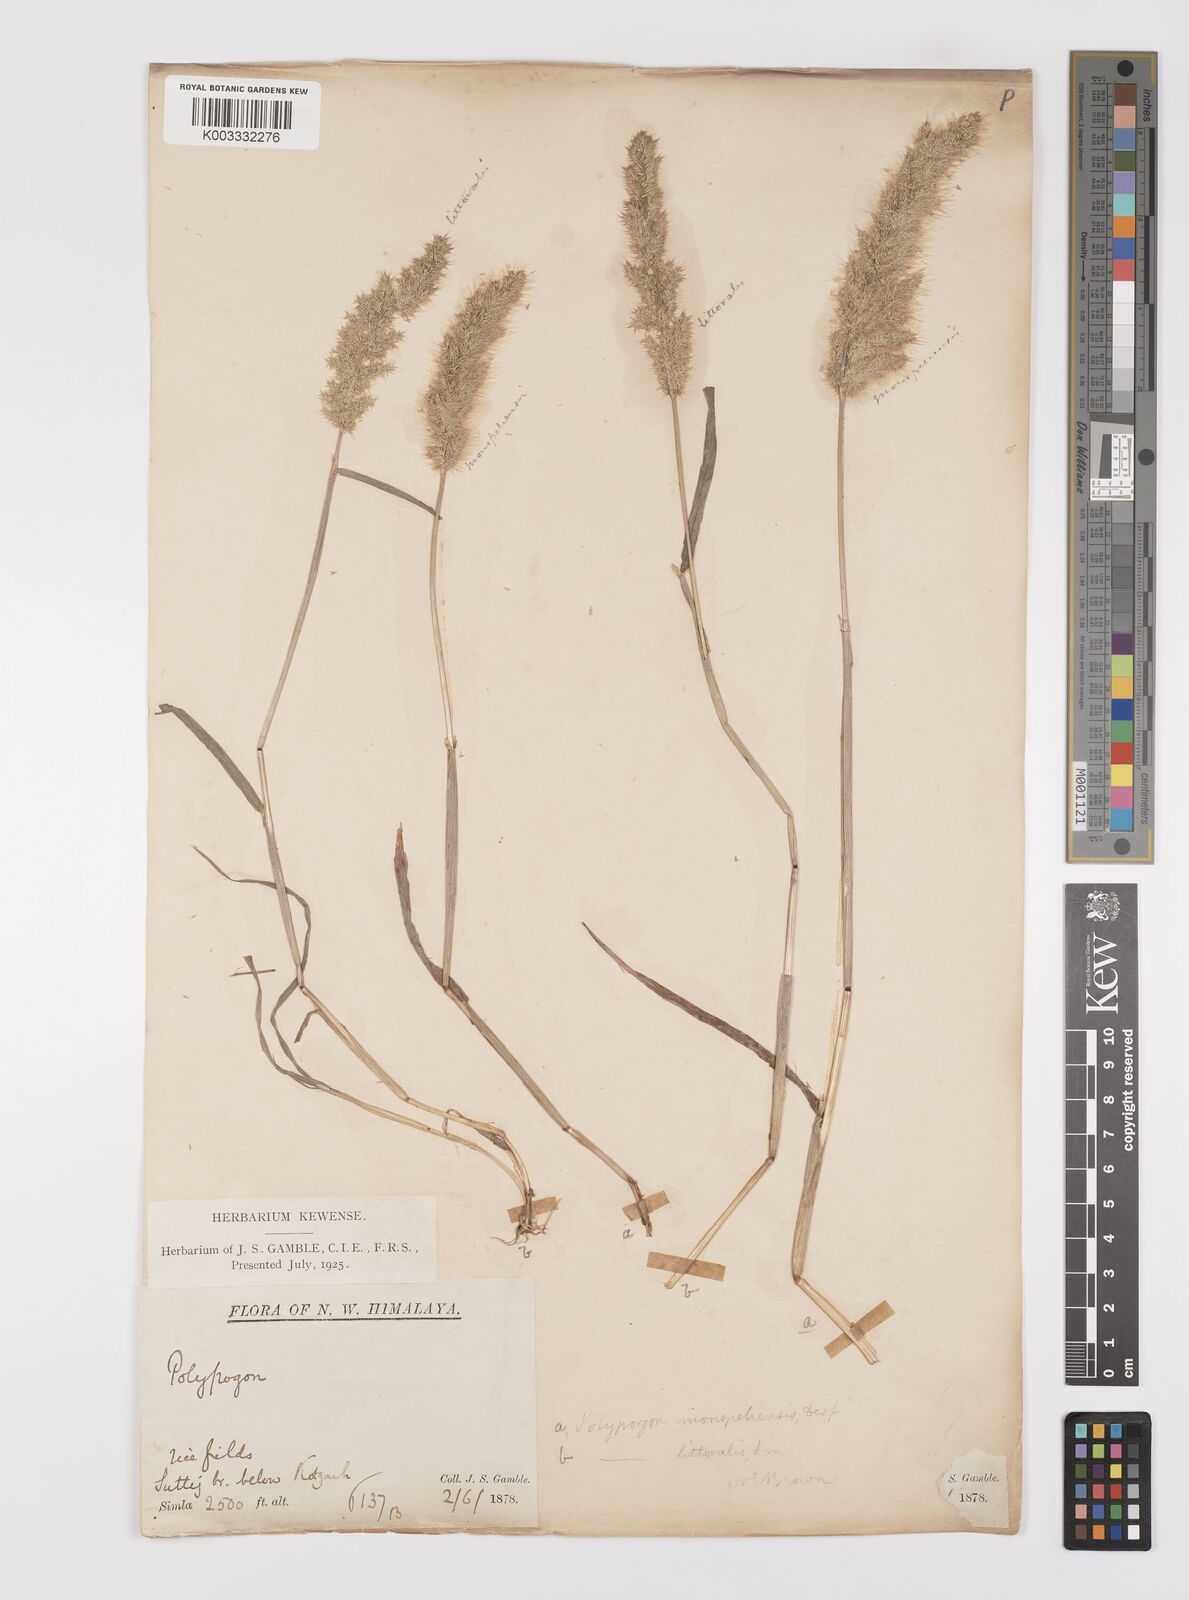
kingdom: Plantae
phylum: Tracheophyta
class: Liliopsida
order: Poales
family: Poaceae
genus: Polypogon
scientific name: Polypogon monspeliensis
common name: Annual rabbitsfoot grass
